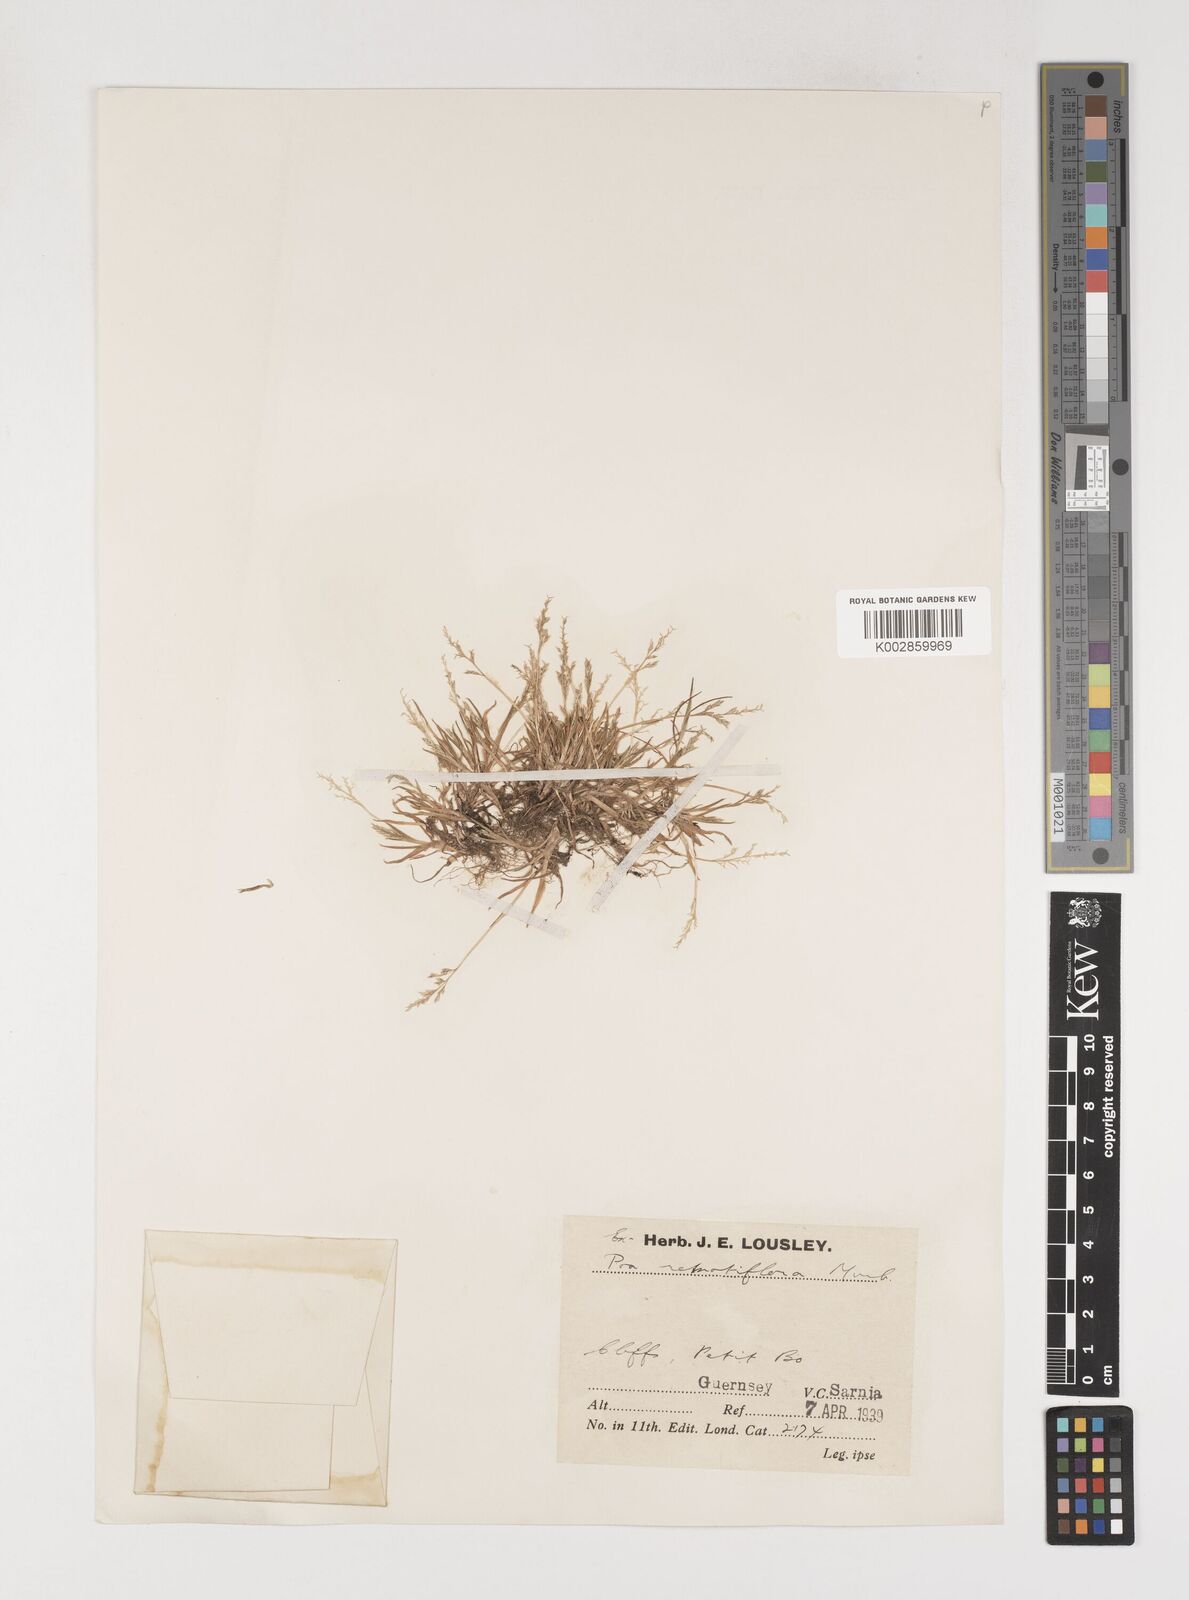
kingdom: Plantae
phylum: Tracheophyta
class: Liliopsida
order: Poales
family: Poaceae
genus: Poa
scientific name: Poa infirma
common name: Weak bluegrass
